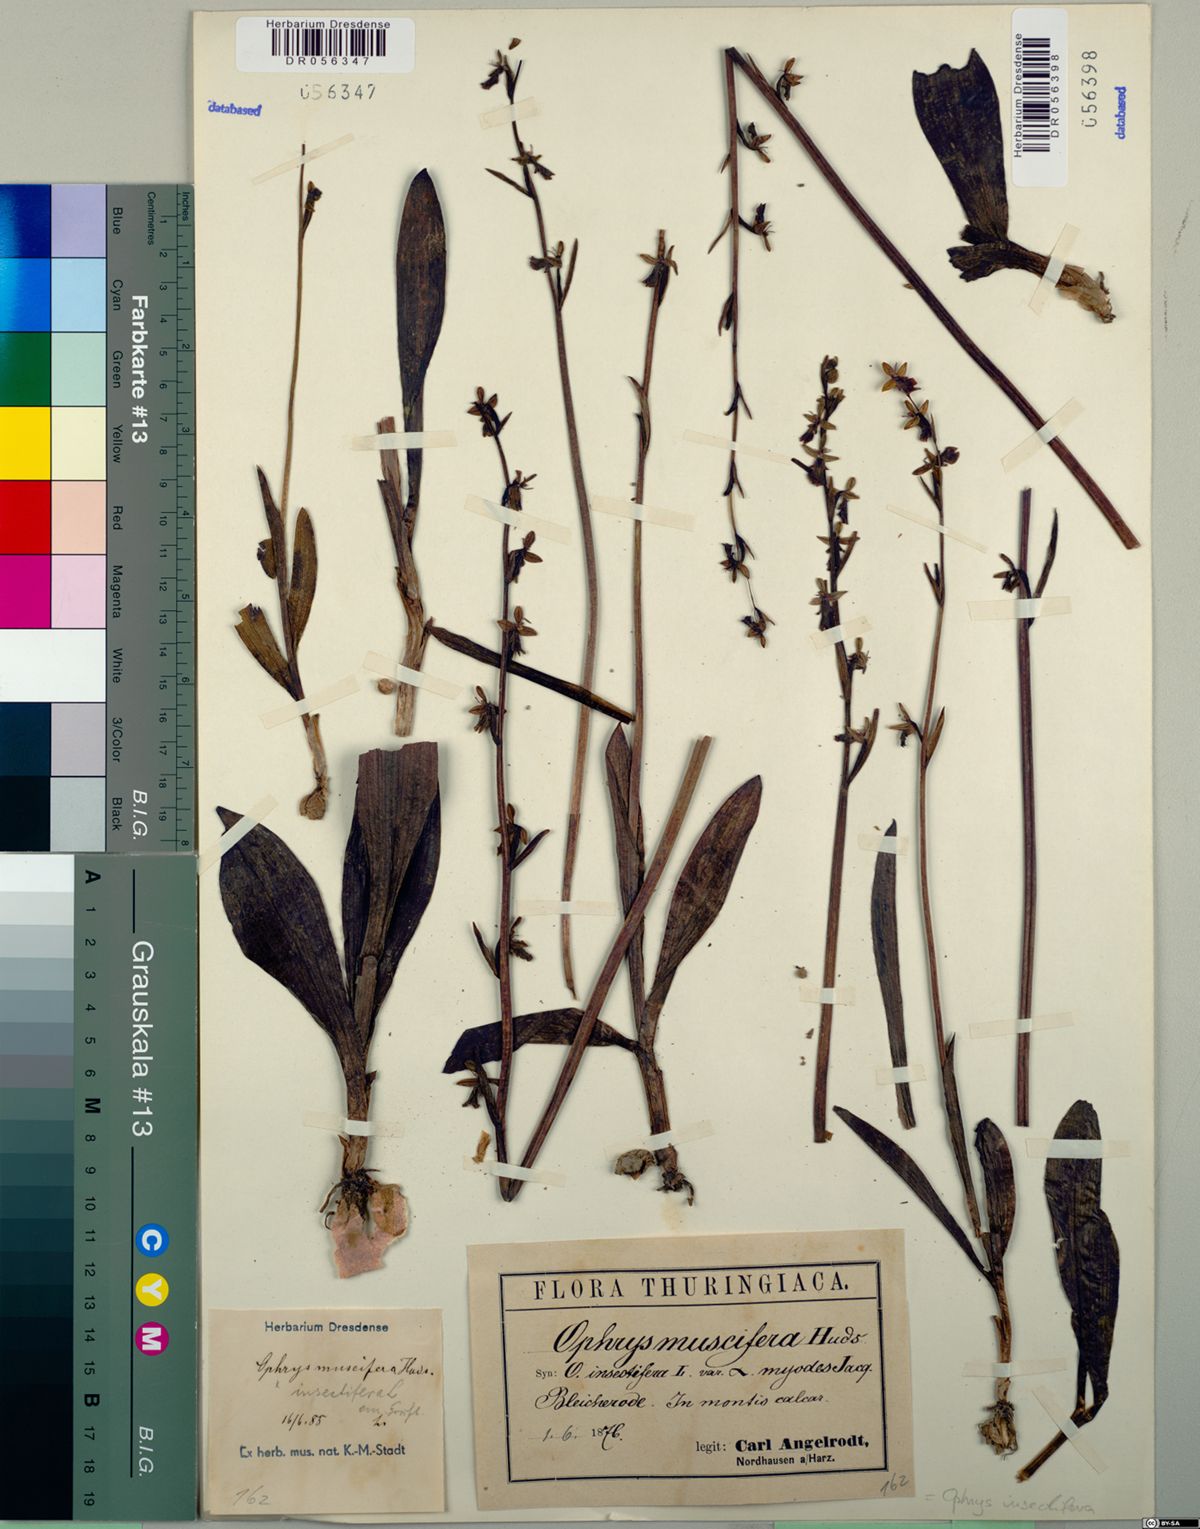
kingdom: Plantae
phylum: Tracheophyta
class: Liliopsida
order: Asparagales
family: Orchidaceae
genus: Ophrys
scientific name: Ophrys insectifera
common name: Fly orchid
